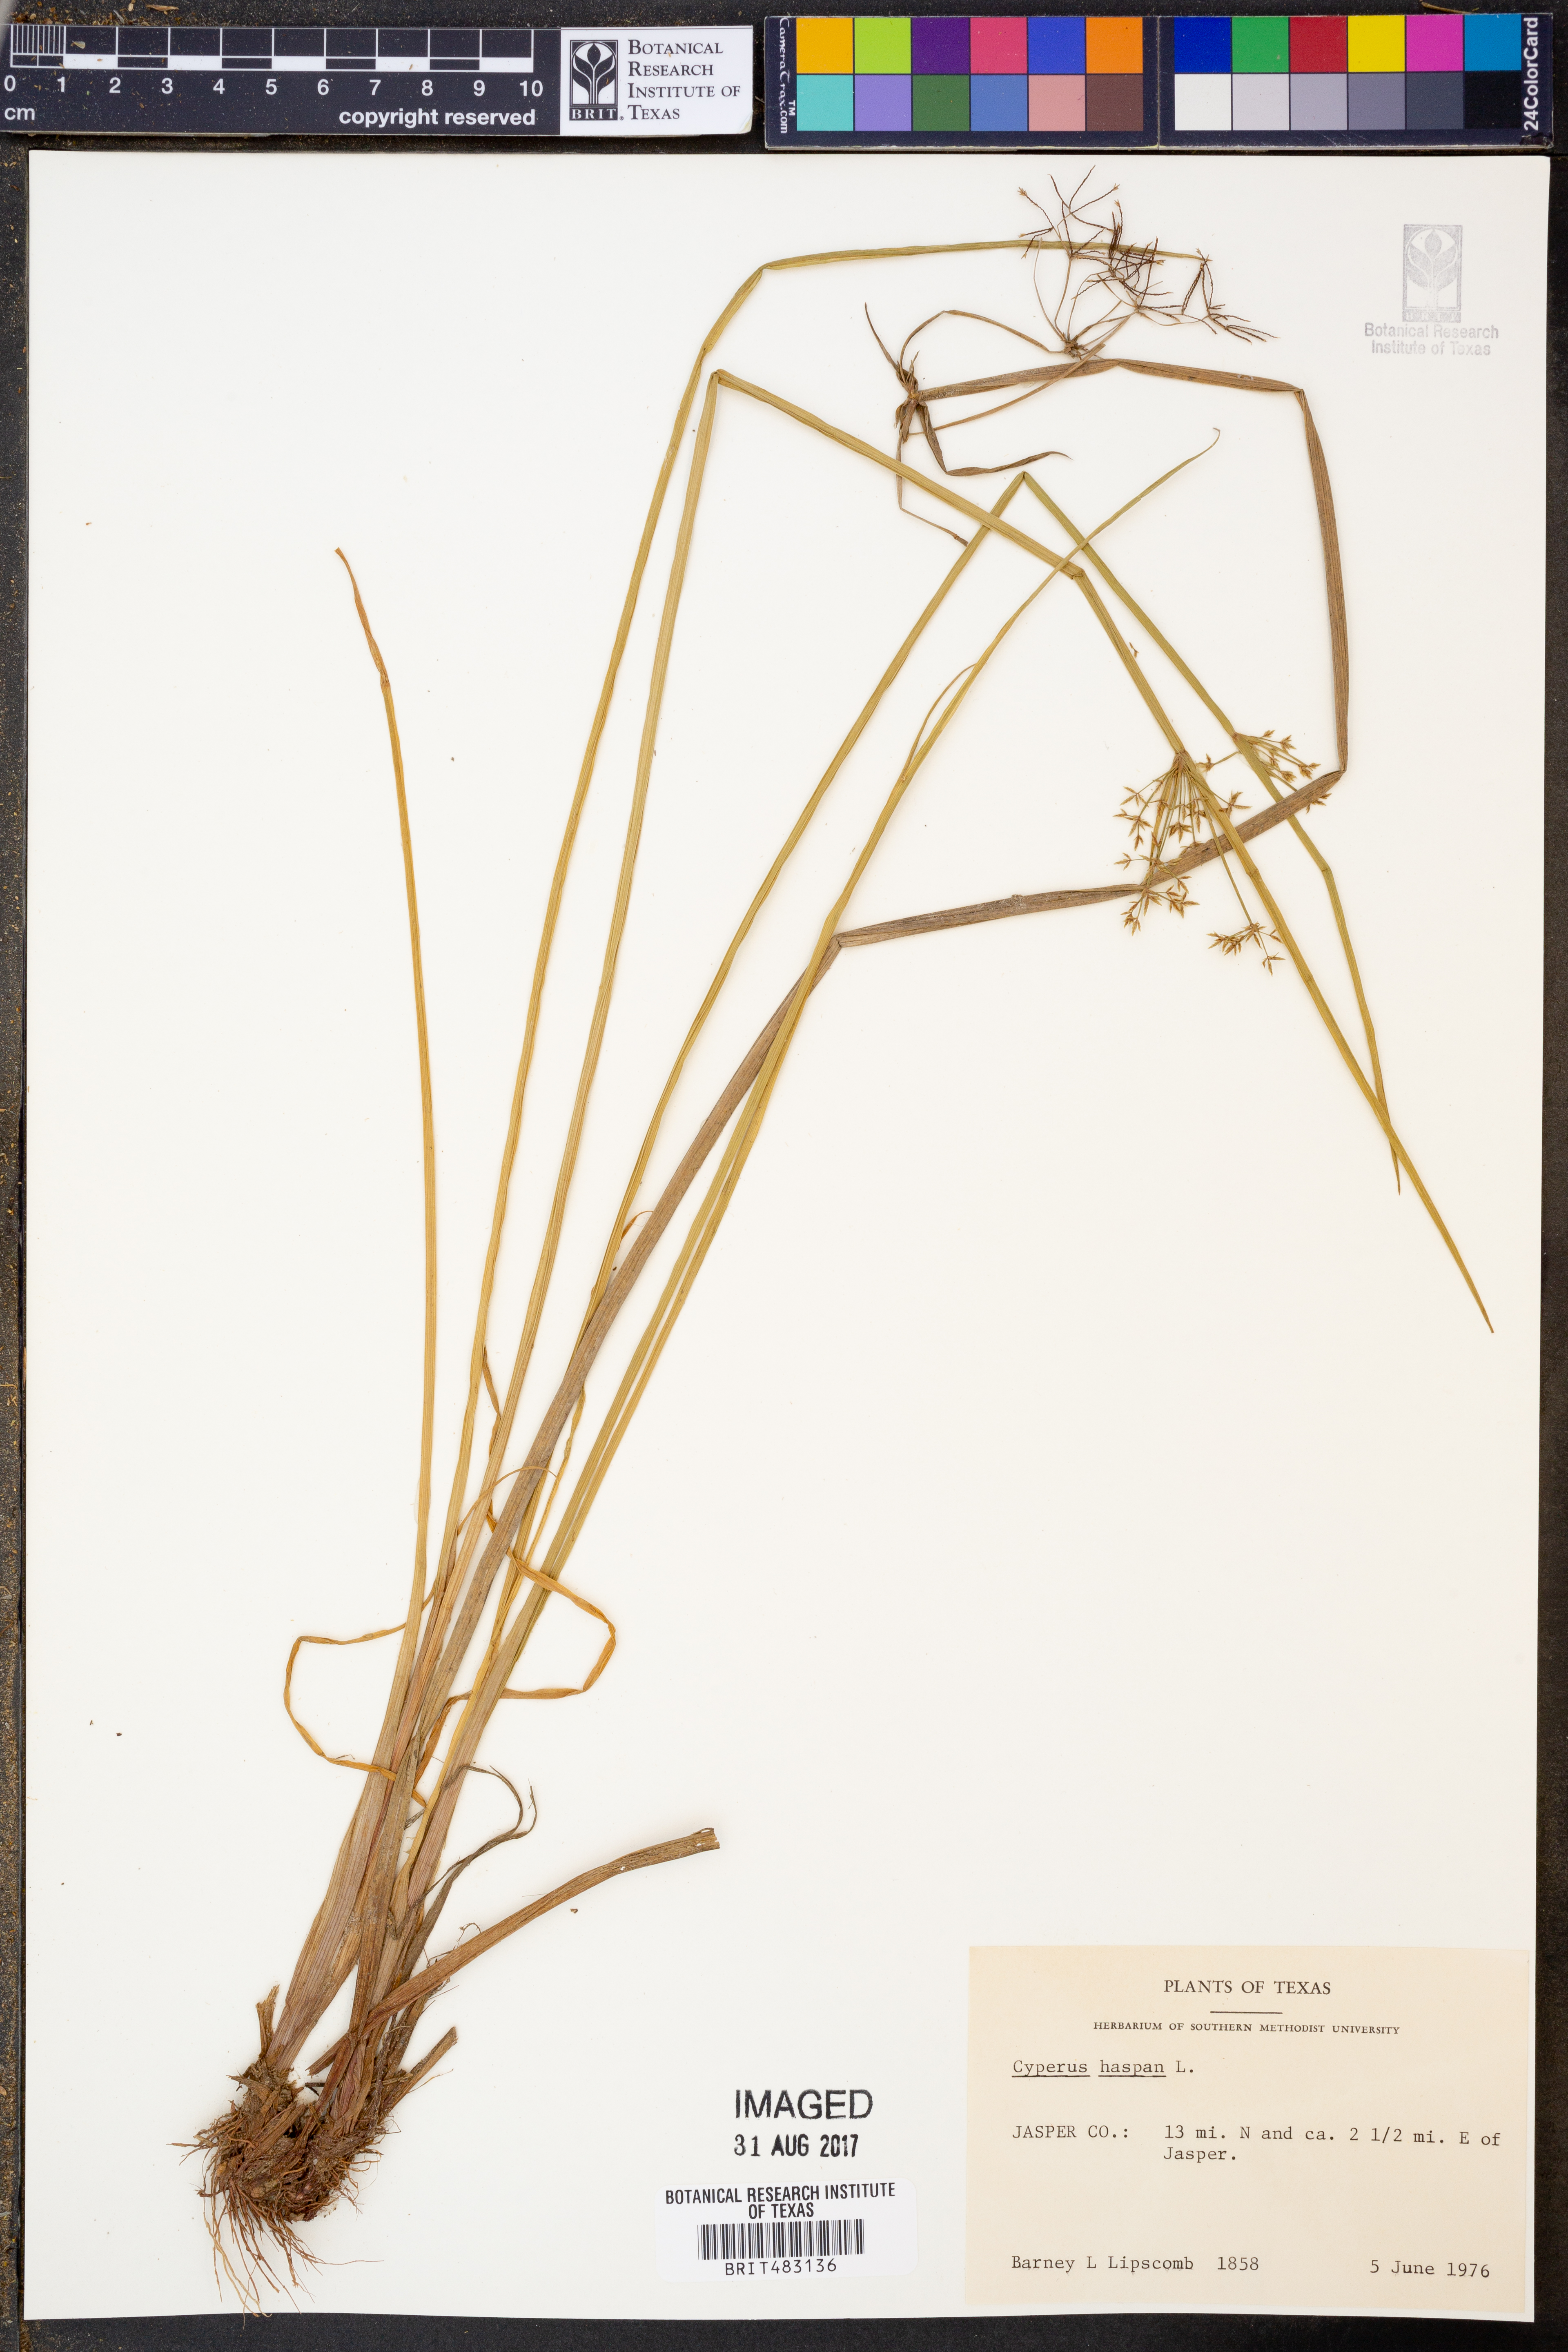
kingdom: Plantae
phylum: Tracheophyta
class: Liliopsida
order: Poales
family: Cyperaceae
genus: Cyperus
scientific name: Cyperus haspan
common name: Haspan flatsedge
